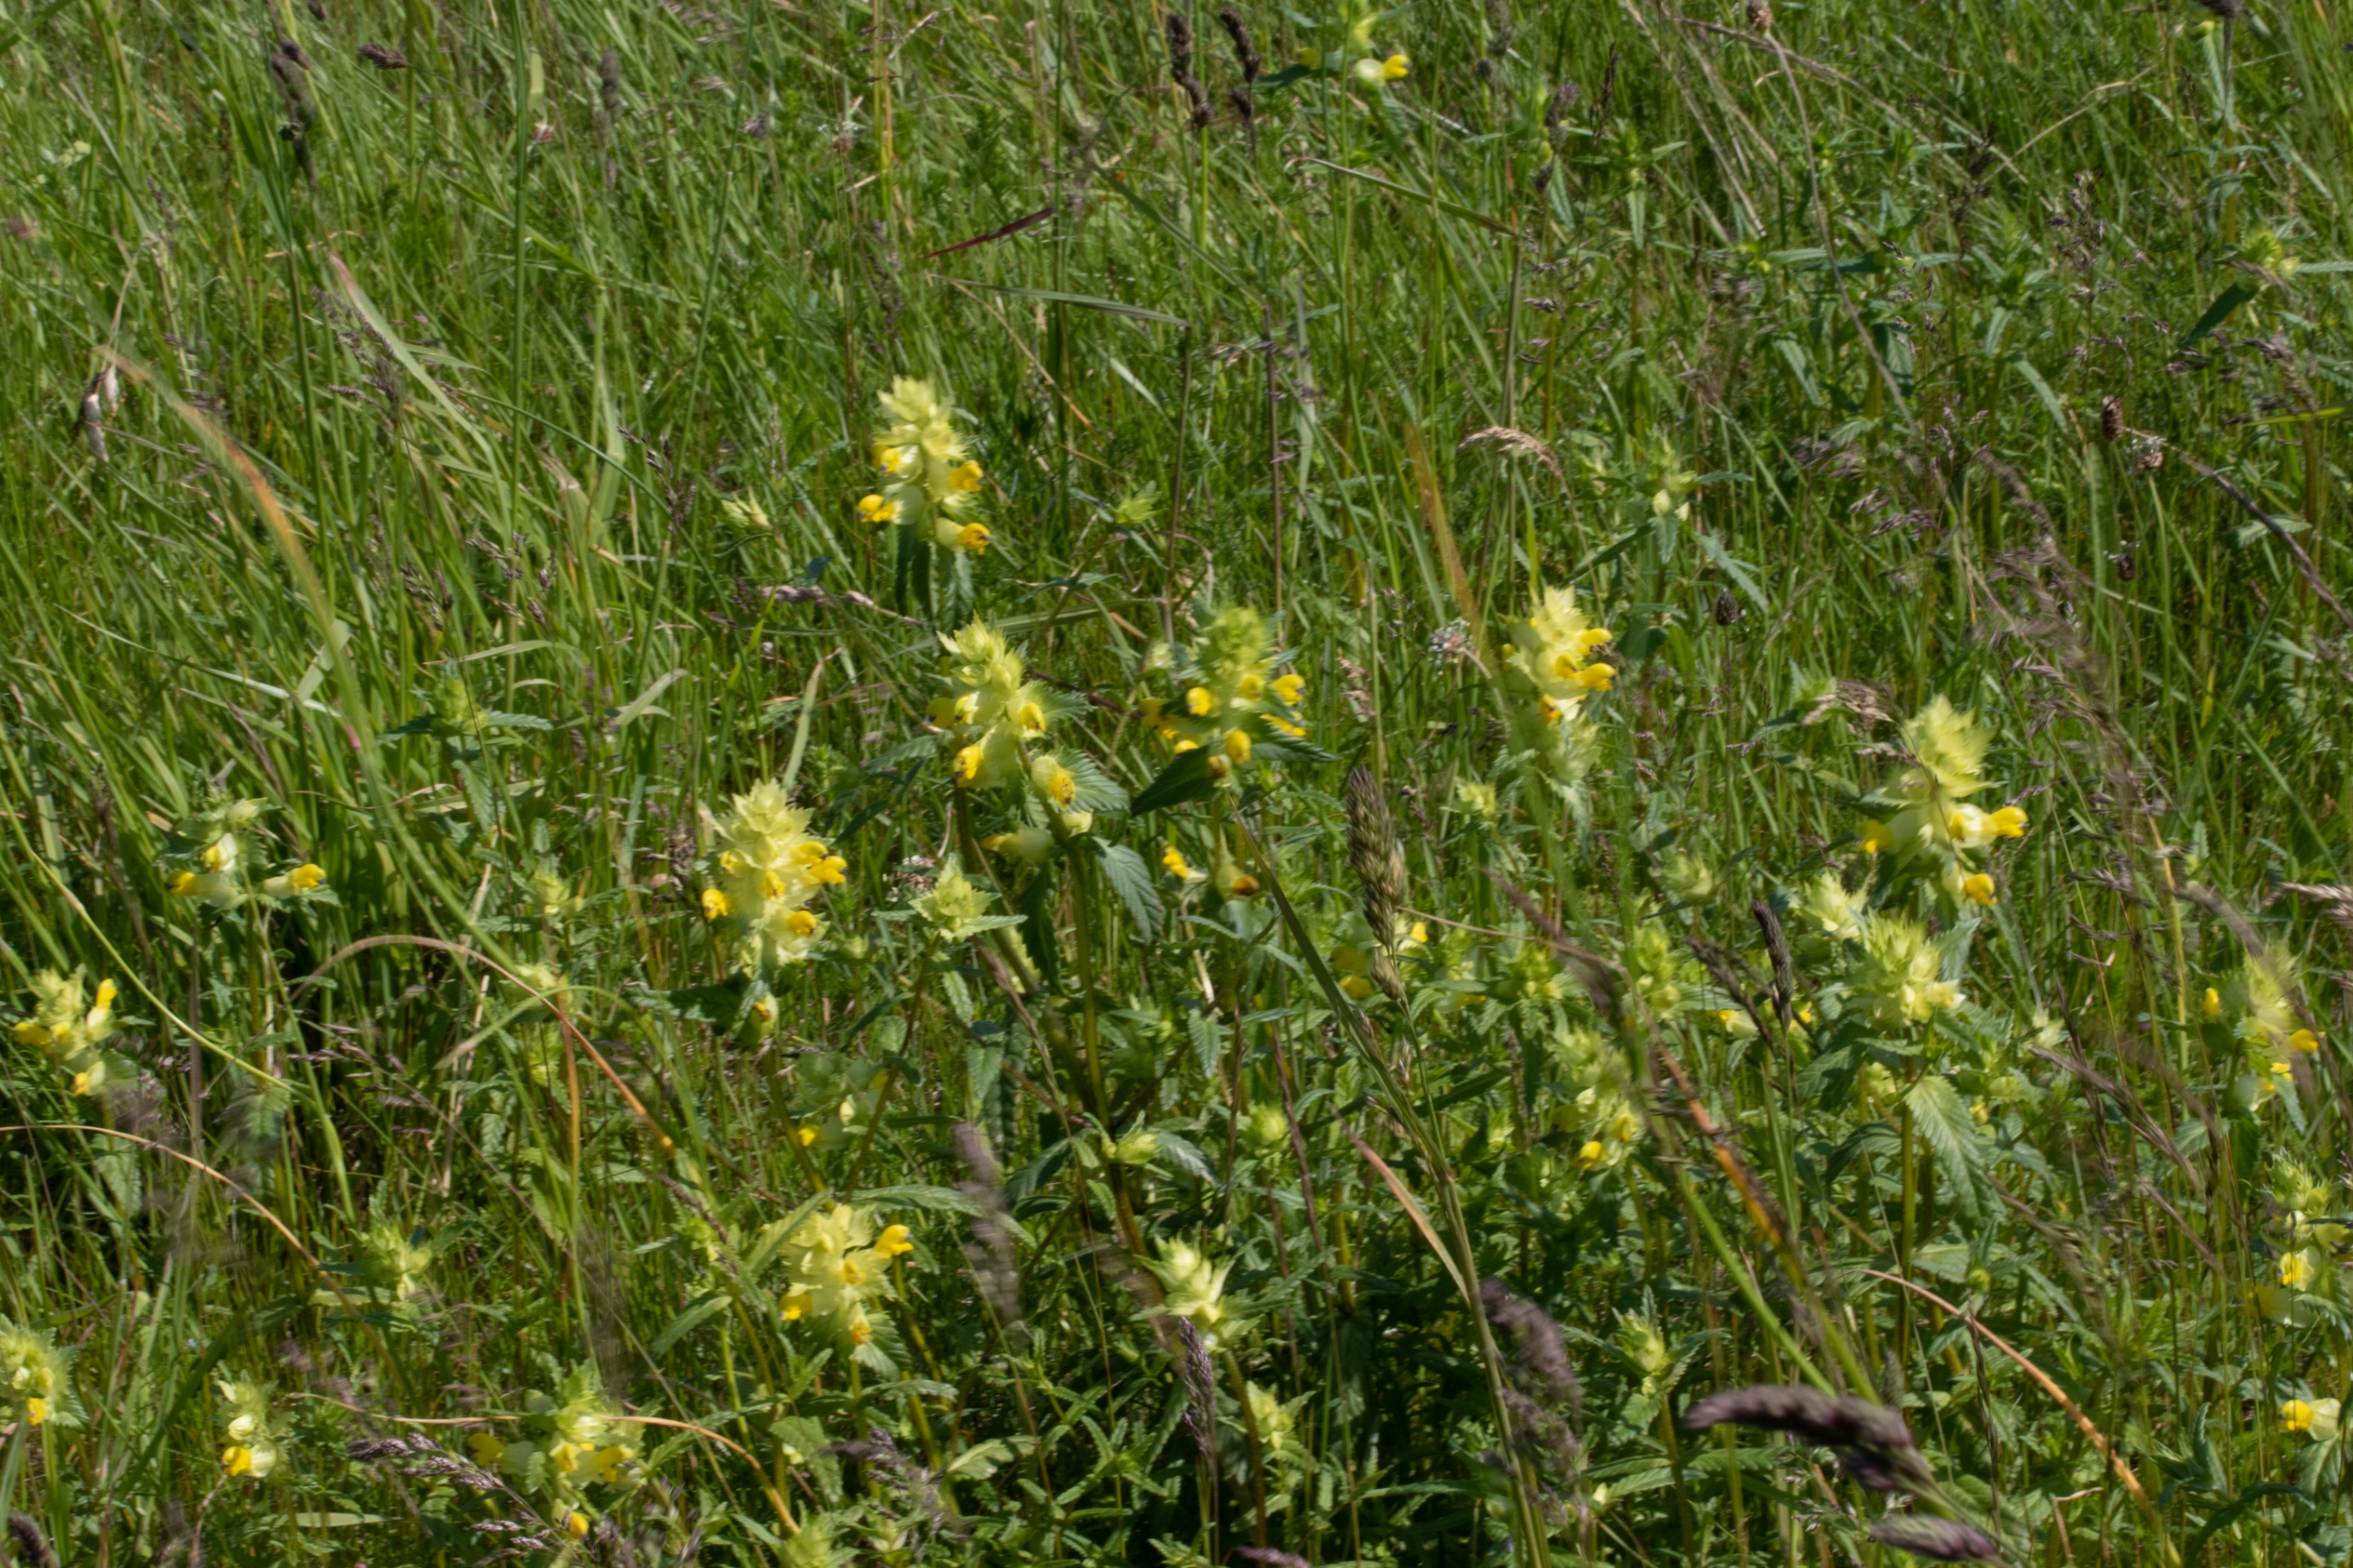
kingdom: Plantae
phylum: Tracheophyta
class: Magnoliopsida
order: Lamiales
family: Orobanchaceae
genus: Rhinanthus
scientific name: Rhinanthus
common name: Stor skjaller
